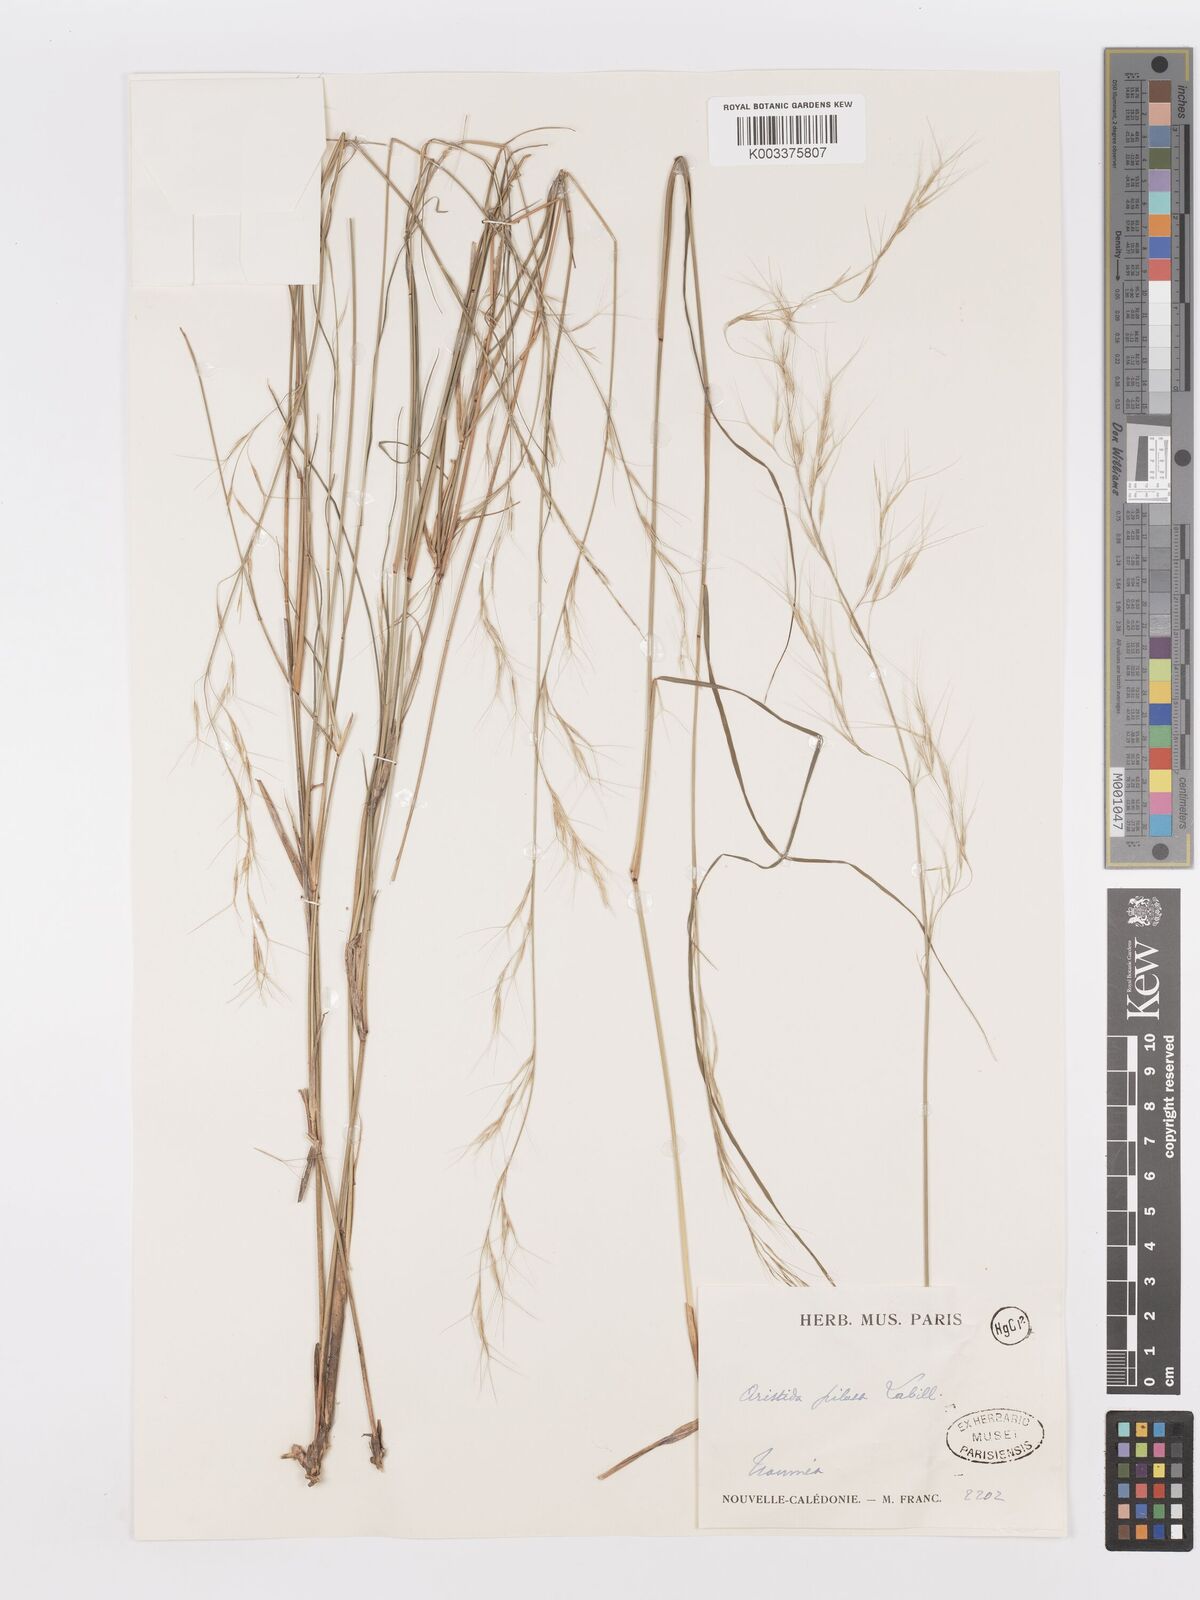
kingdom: Plantae
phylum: Tracheophyta
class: Liliopsida
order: Poales
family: Poaceae
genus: Aristida
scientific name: Aristida ramosa
